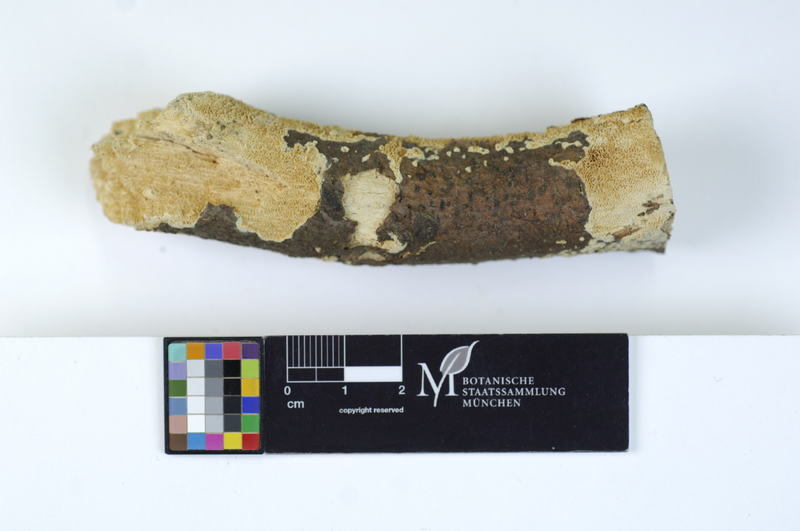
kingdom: Fungi
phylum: Basidiomycota
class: Agaricomycetes
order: Hymenochaetales
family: Schizoporaceae
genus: Schizopora
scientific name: Schizopora paradoxa
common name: Split porecrust
